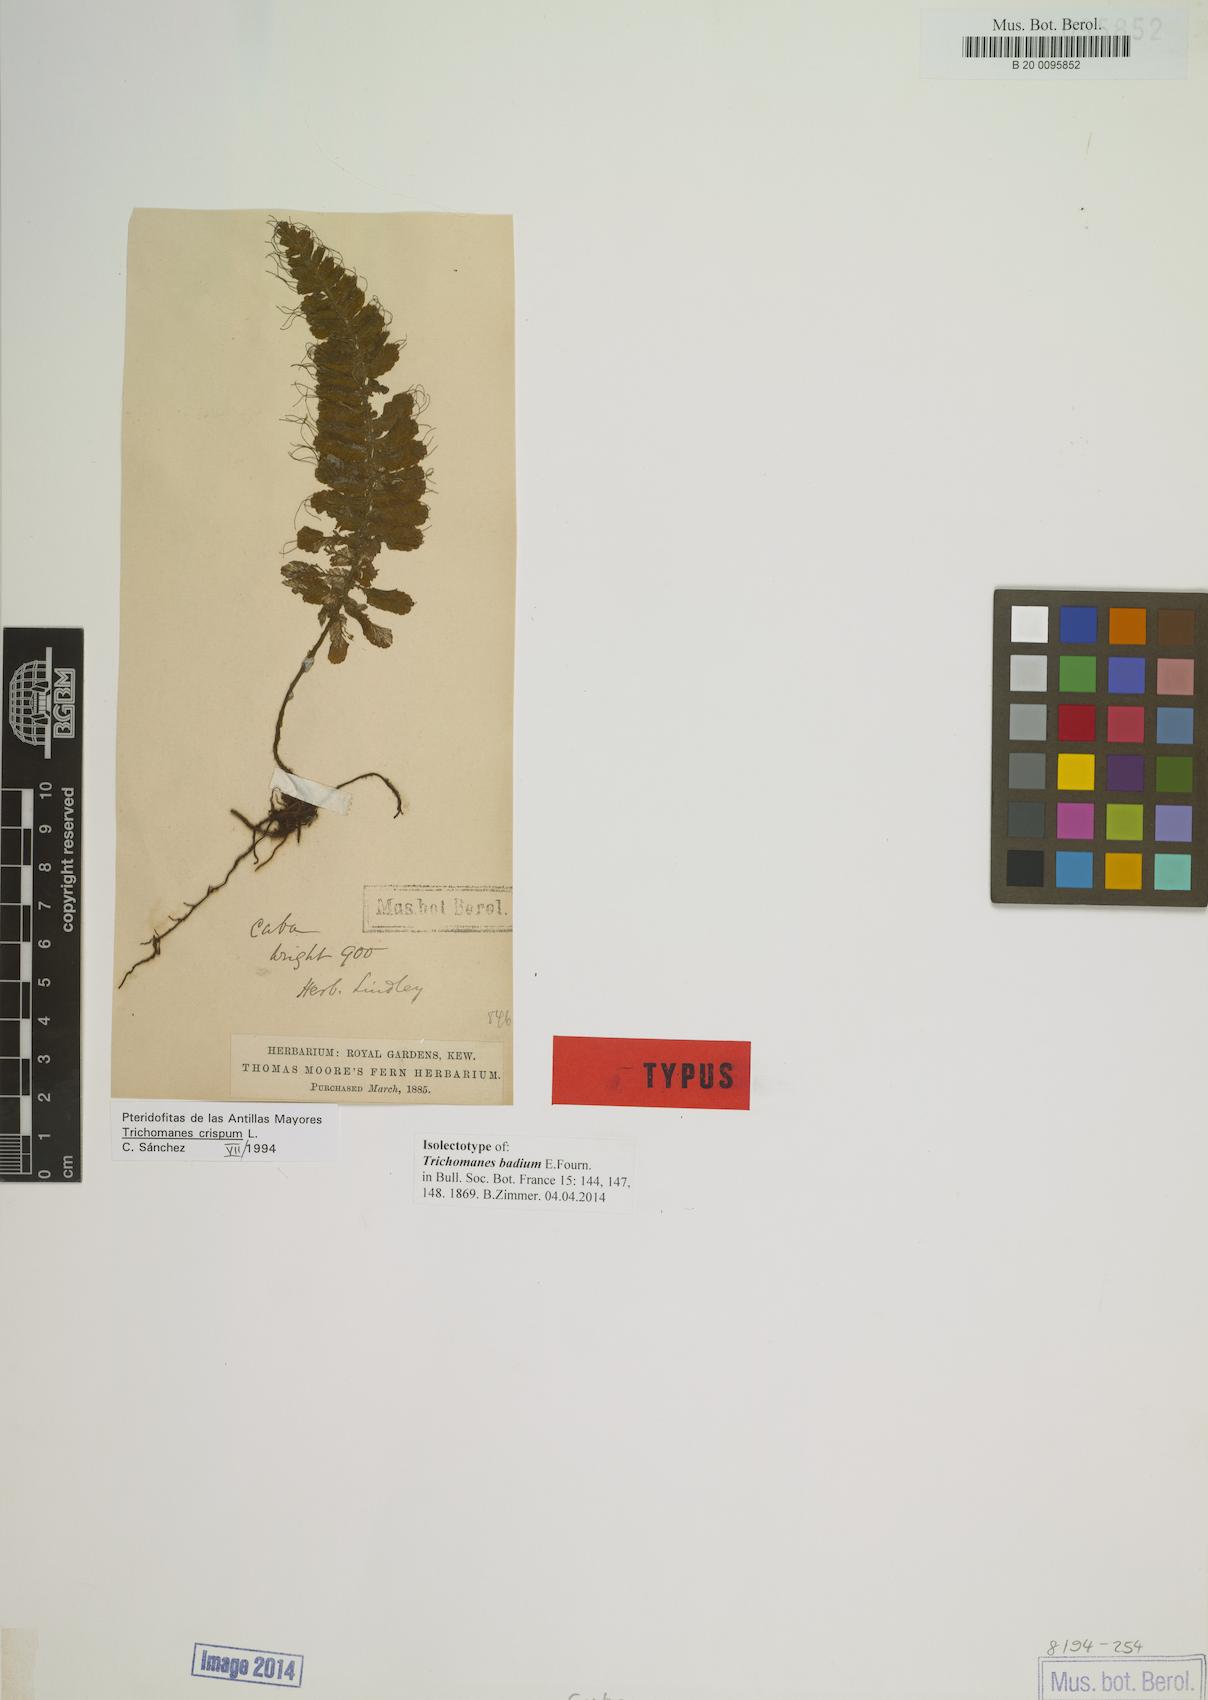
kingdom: Plantae
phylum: Tracheophyta
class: Polypodiopsida
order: Hymenophyllales
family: Hymenophyllaceae
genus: Trichomanes
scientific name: Trichomanes crispum
